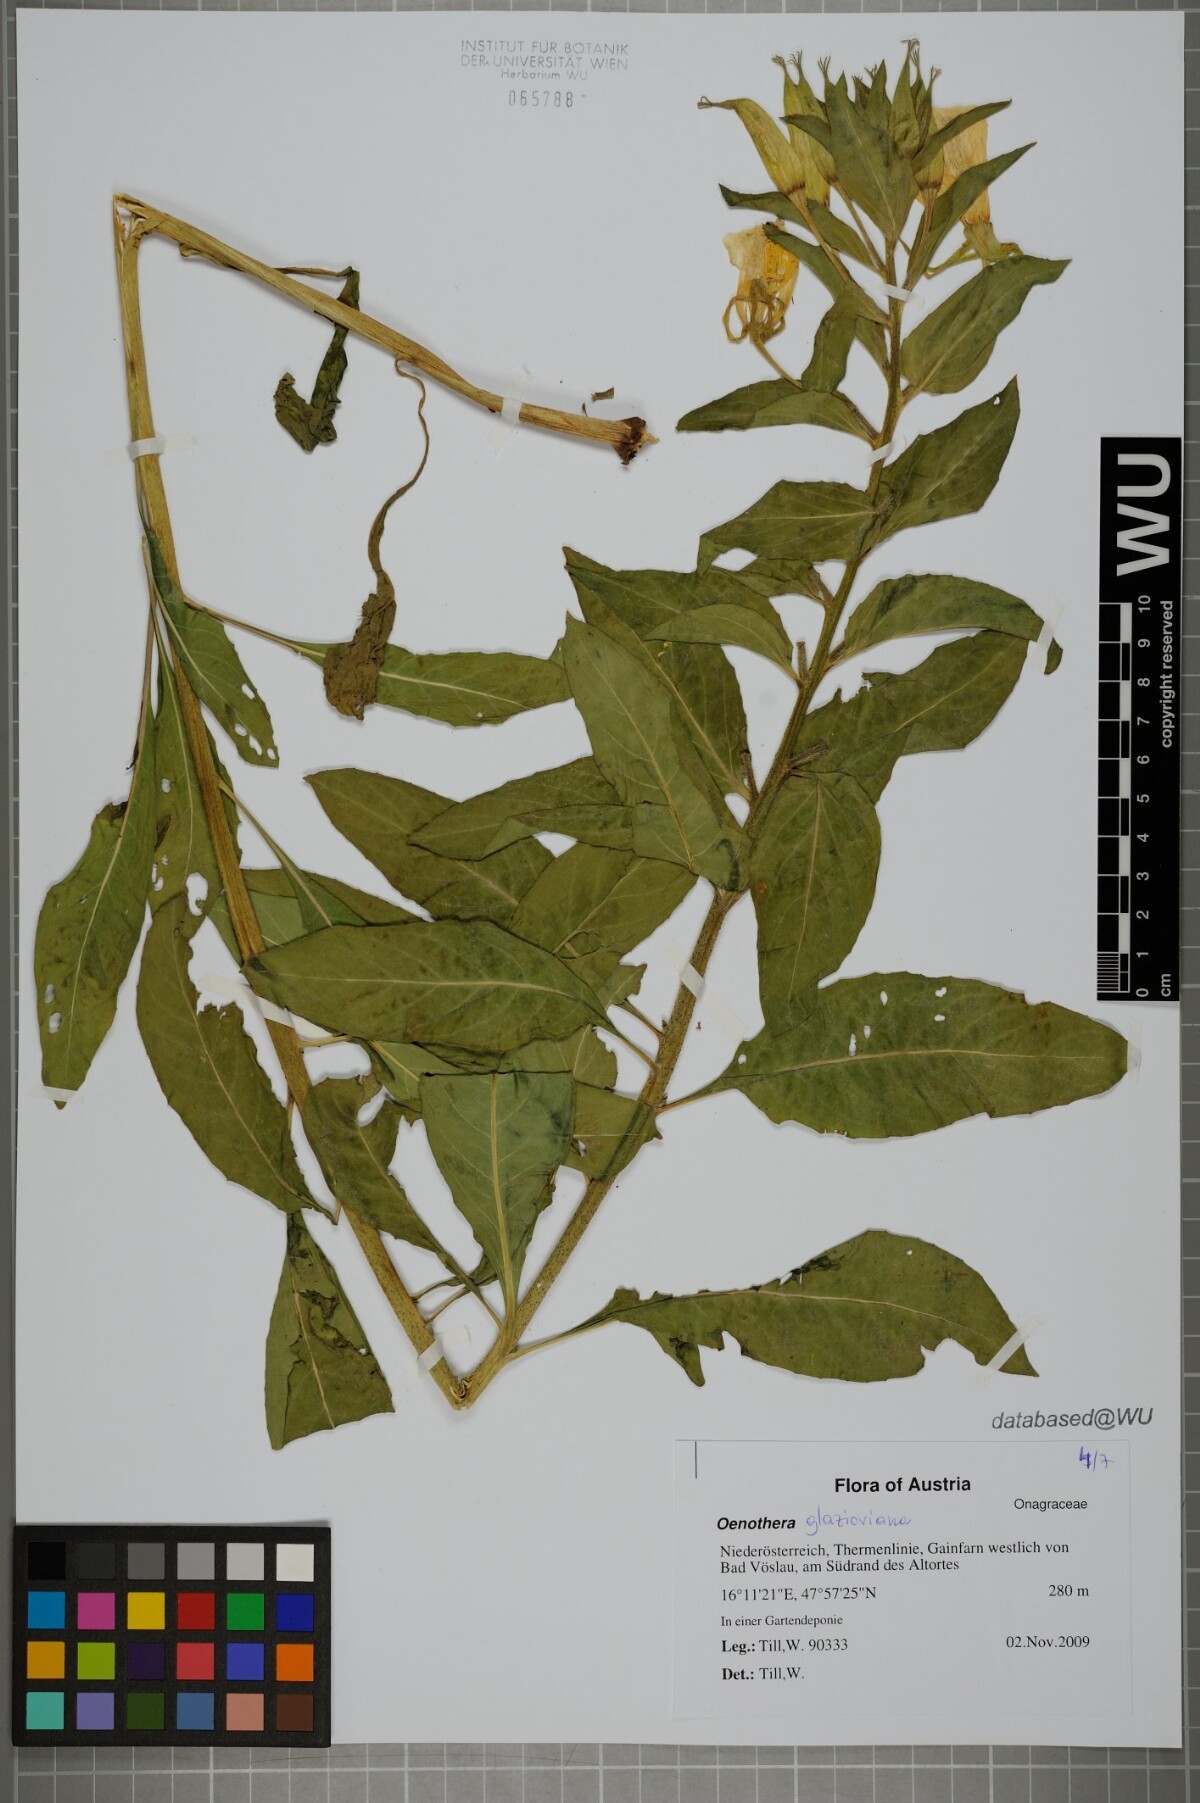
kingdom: Plantae
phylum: Tracheophyta
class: Magnoliopsida
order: Myrtales
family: Onagraceae
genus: Oenothera
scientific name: Oenothera glazioviana
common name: Large-flowered evening-primrose
